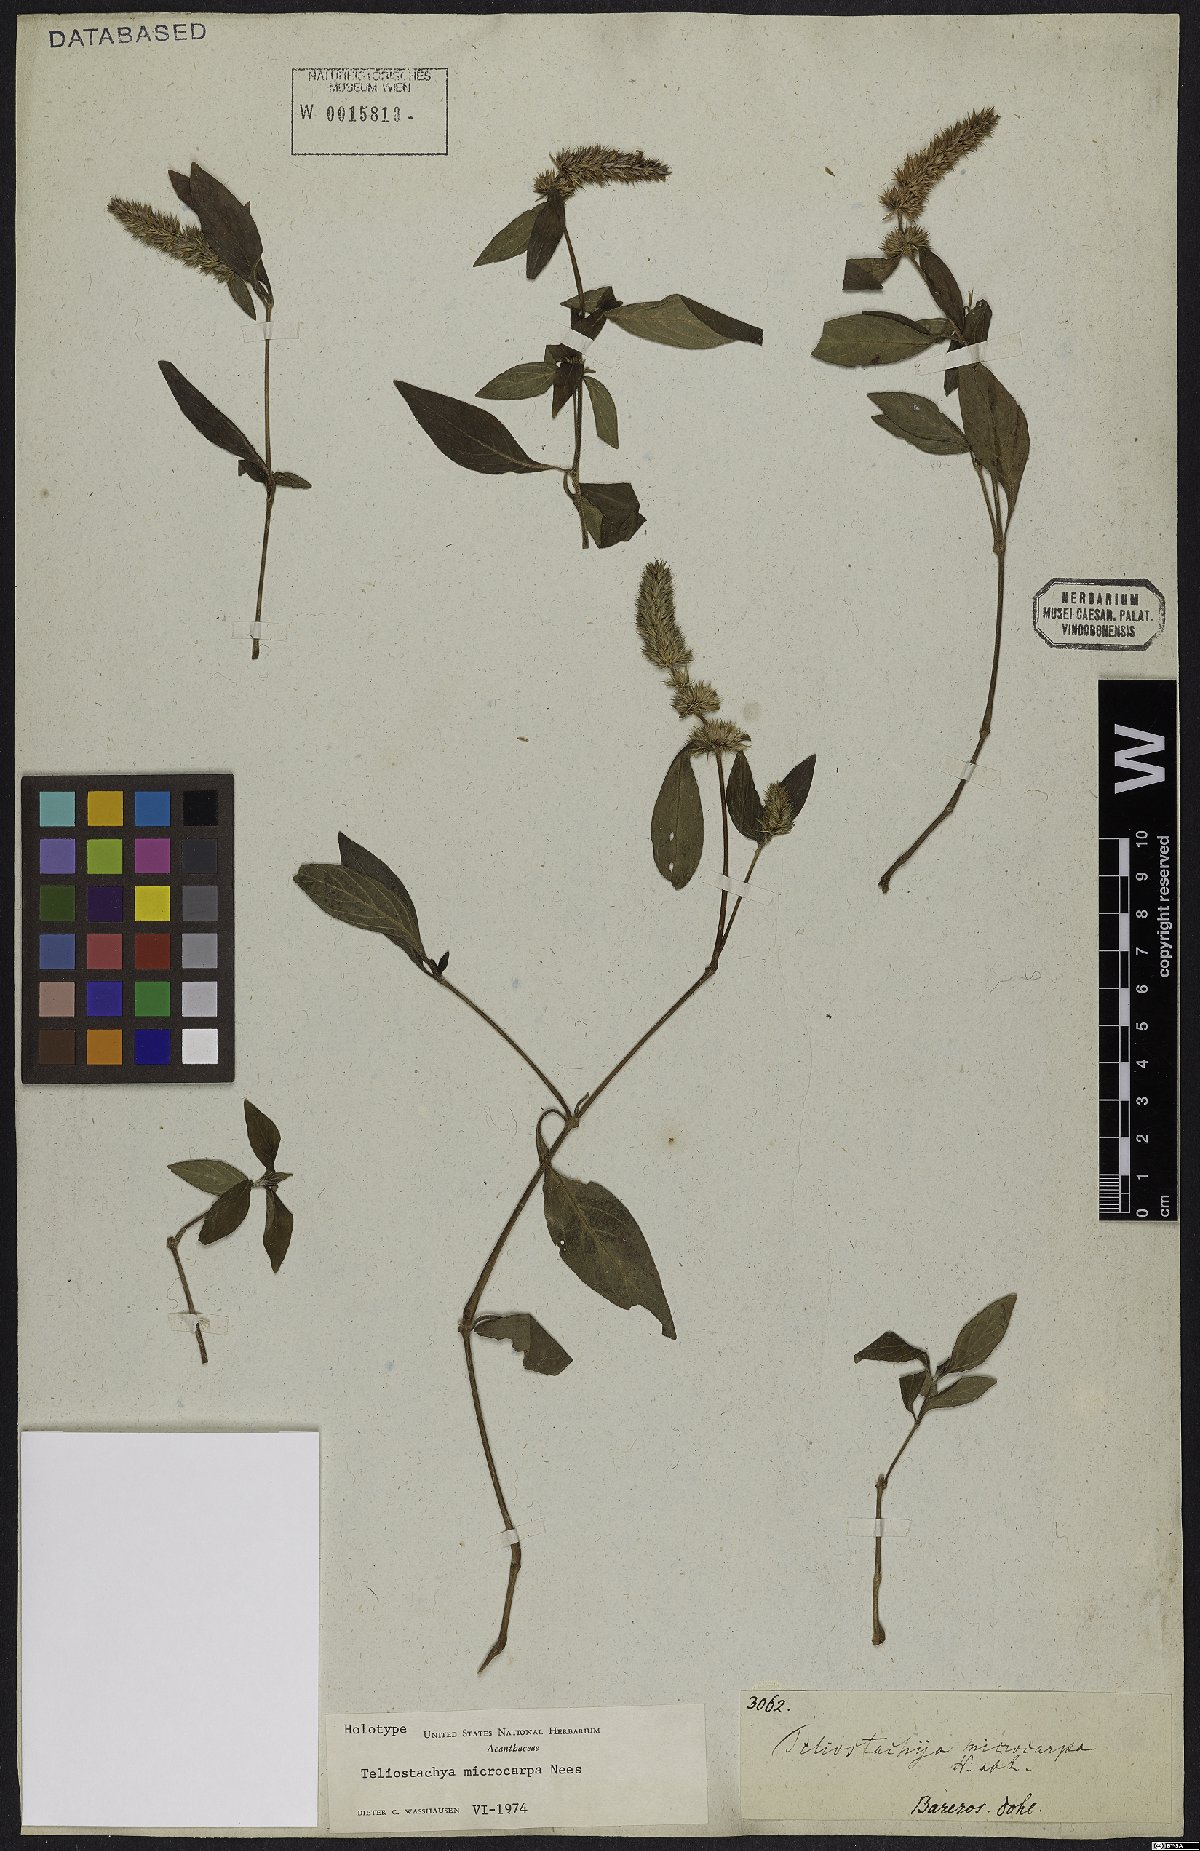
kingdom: Plantae
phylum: Tracheophyta
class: Magnoliopsida
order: Lamiales
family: Acanthaceae
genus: Lepidagathis
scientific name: Lepidagathis Teliostachya microcarpa
